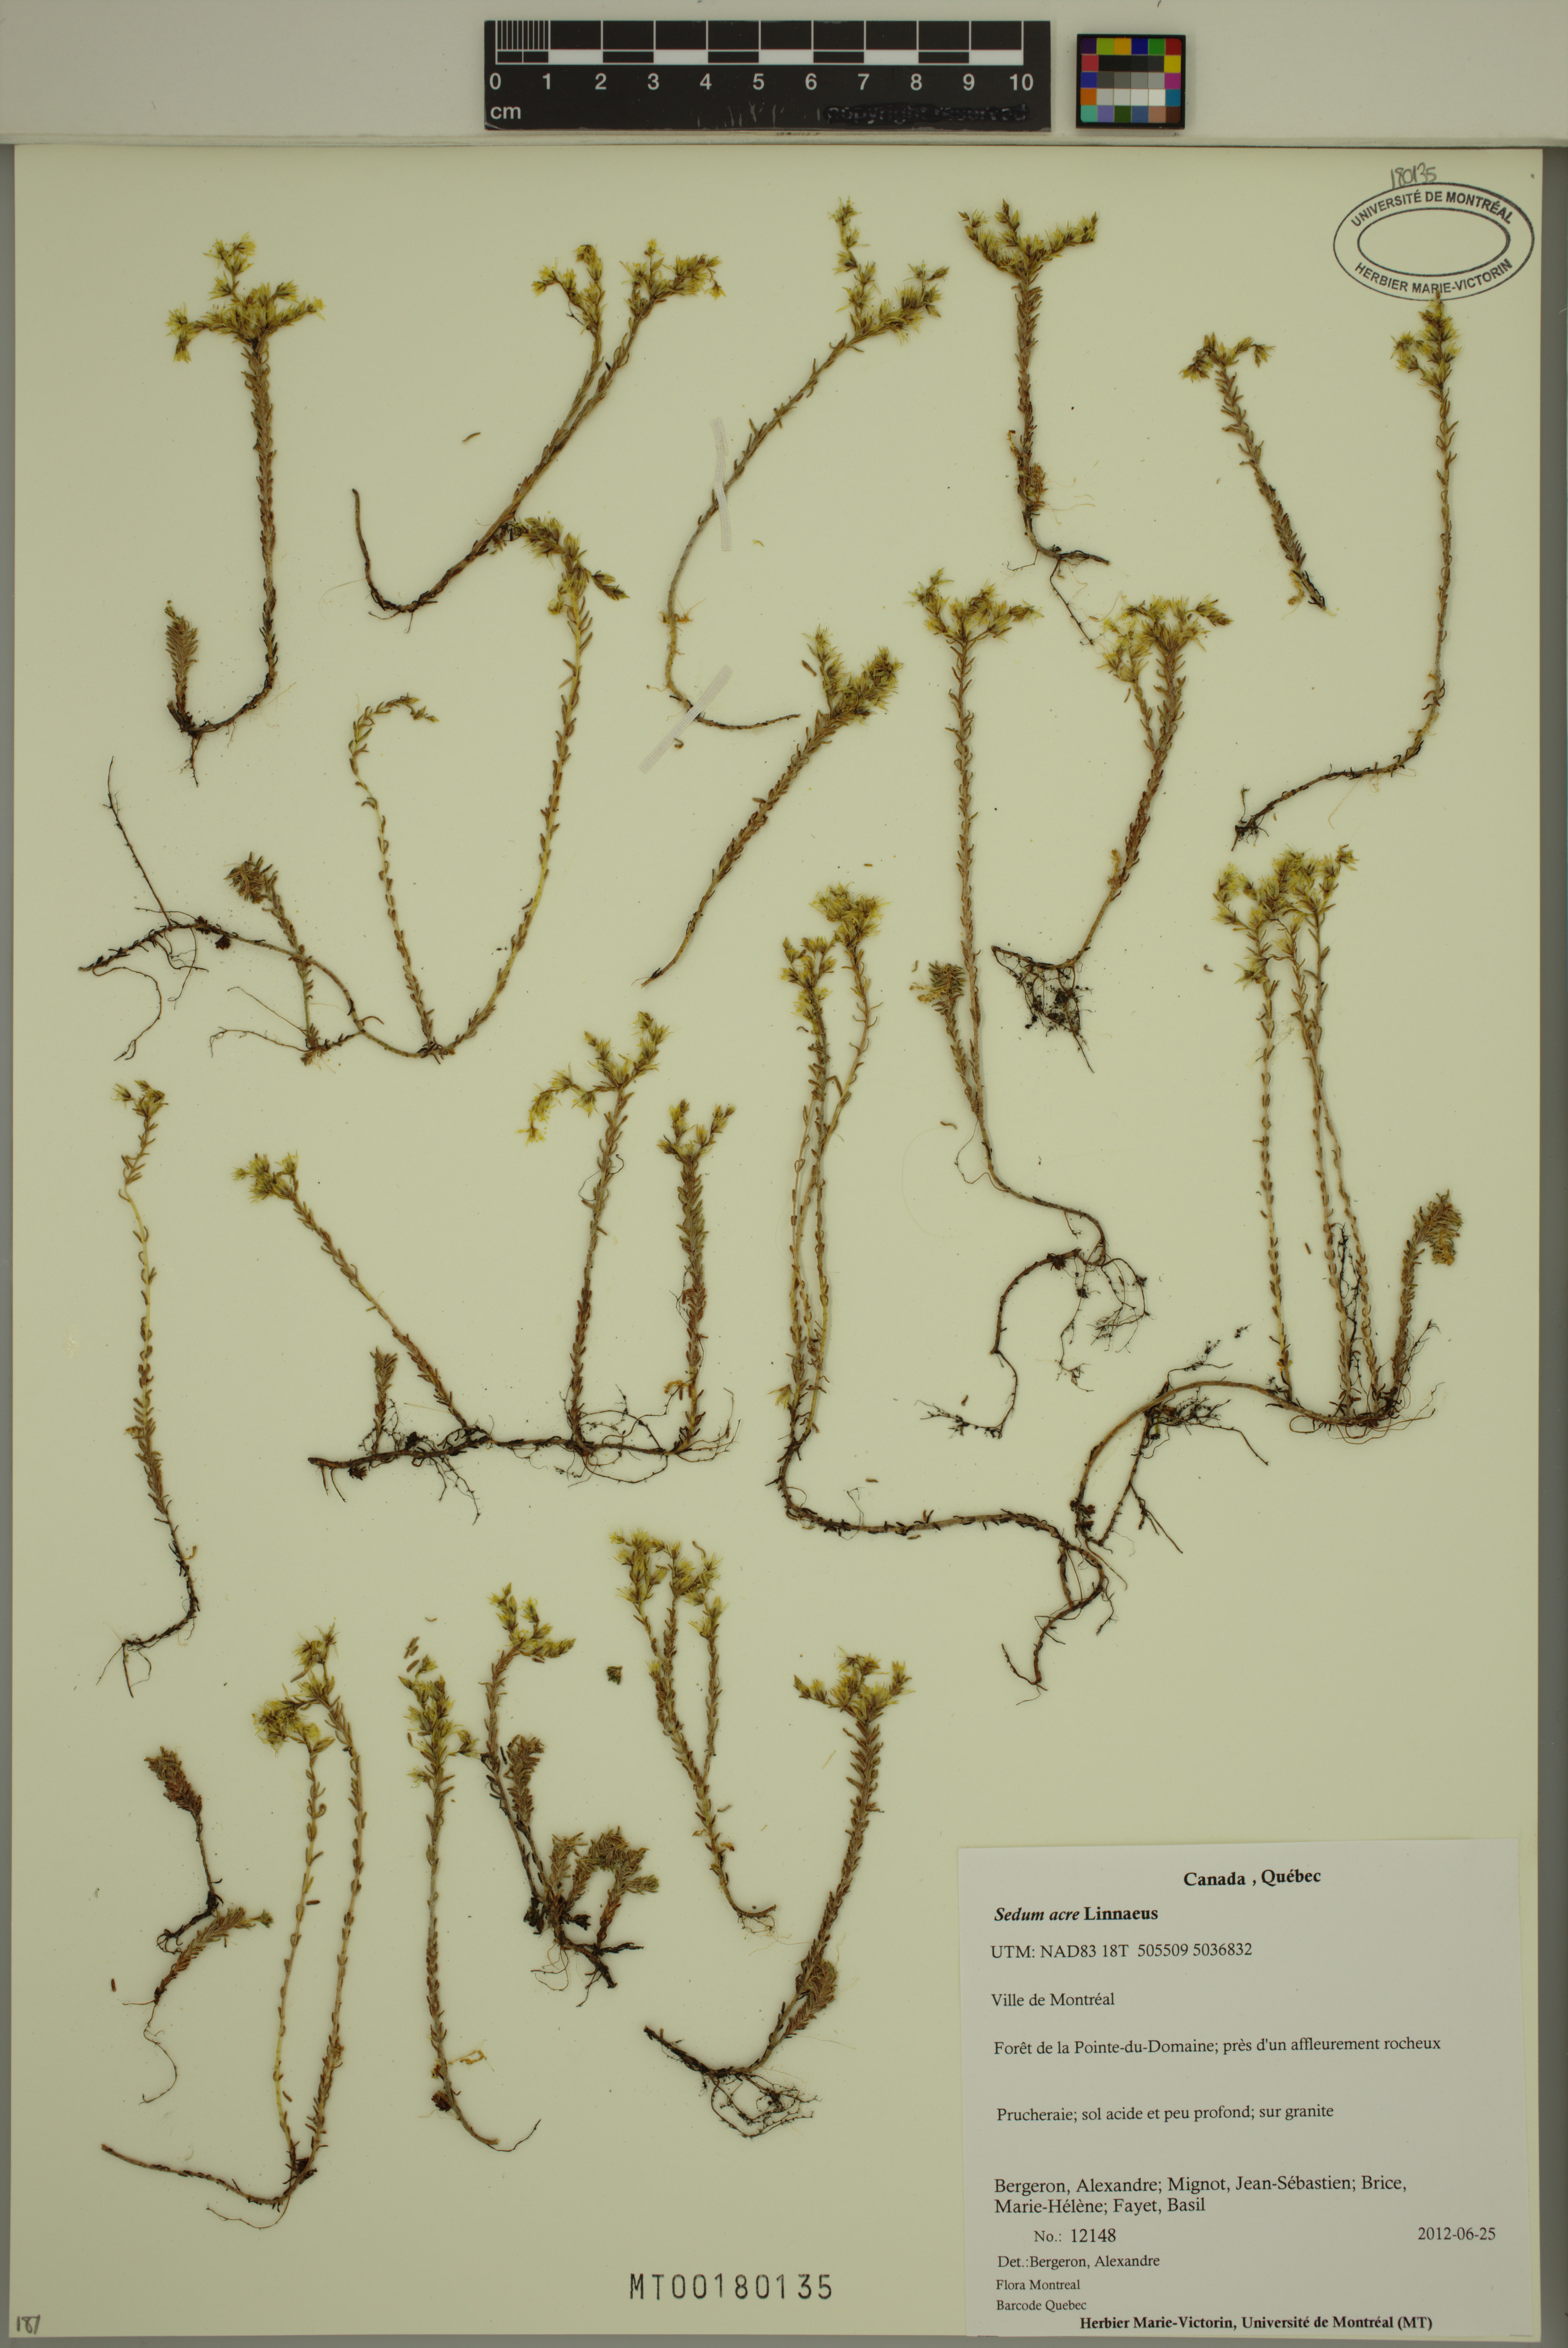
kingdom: Plantae
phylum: Tracheophyta
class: Magnoliopsida
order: Saxifragales
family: Crassulaceae
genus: Sedum
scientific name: Sedum acre
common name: Biting stonecrop
